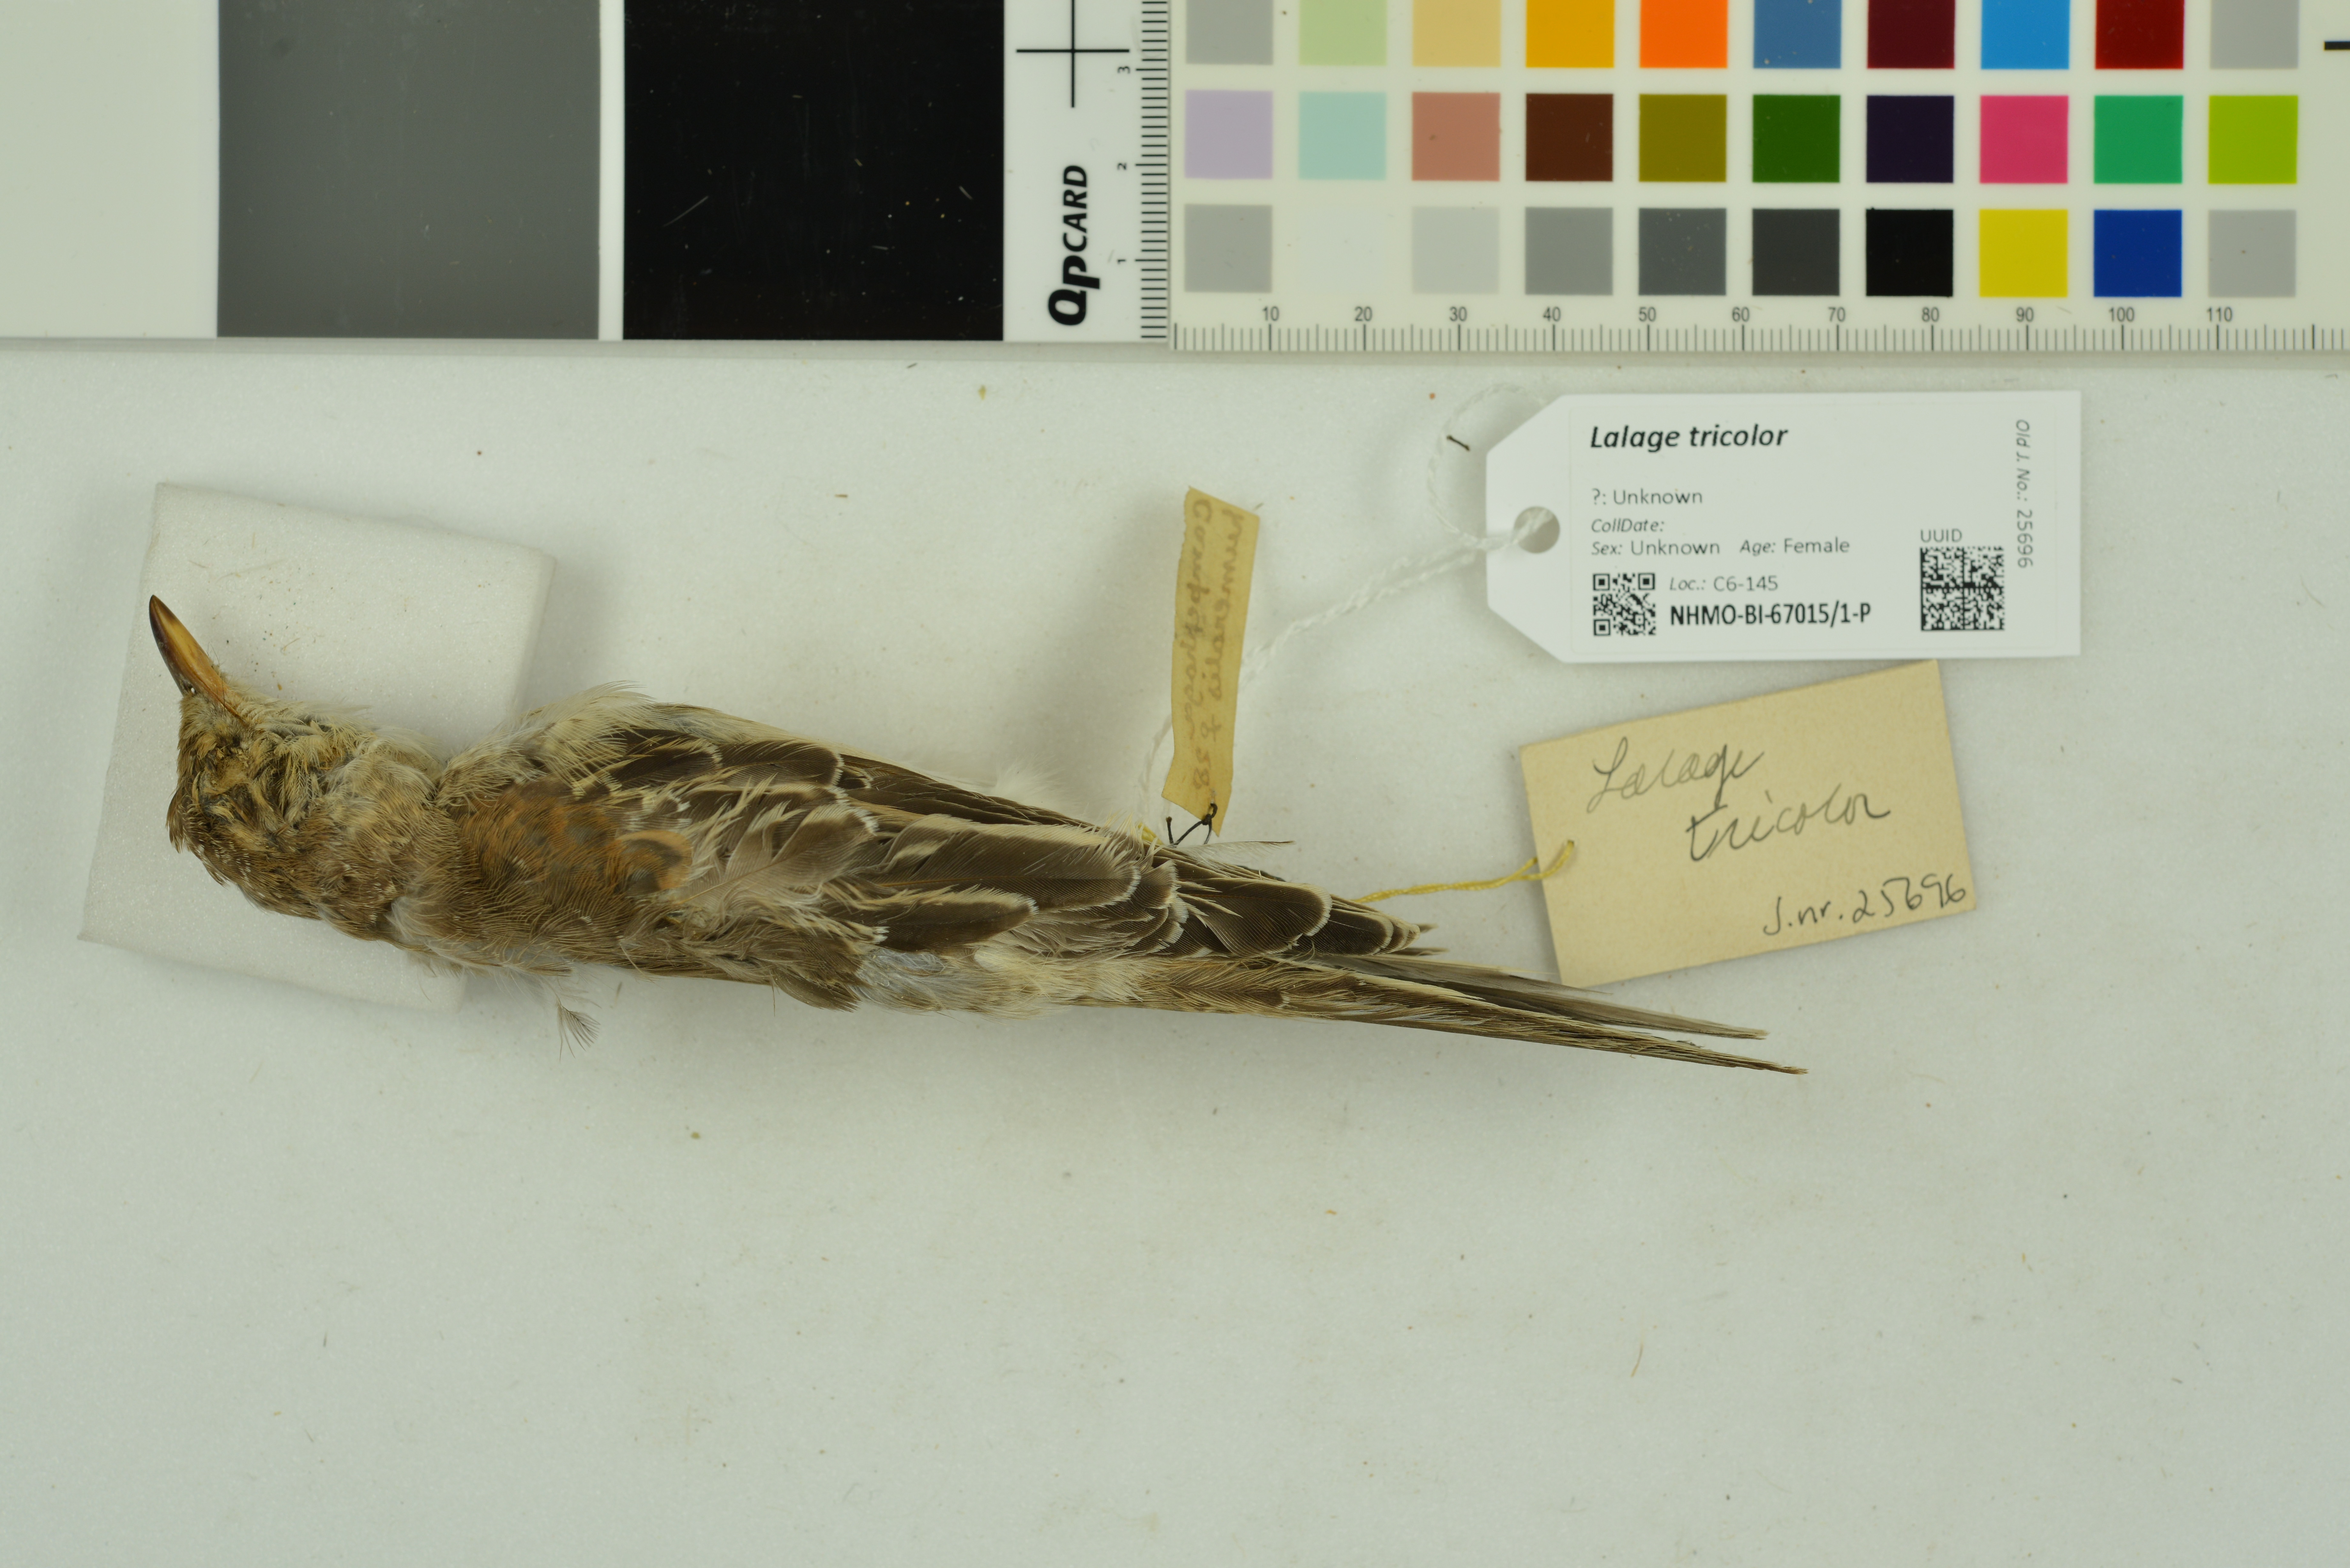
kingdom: Animalia
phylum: Chordata
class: Aves
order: Passeriformes
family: Campephagidae
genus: Lalage
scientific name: Lalage tricolor
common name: White-winged triller
